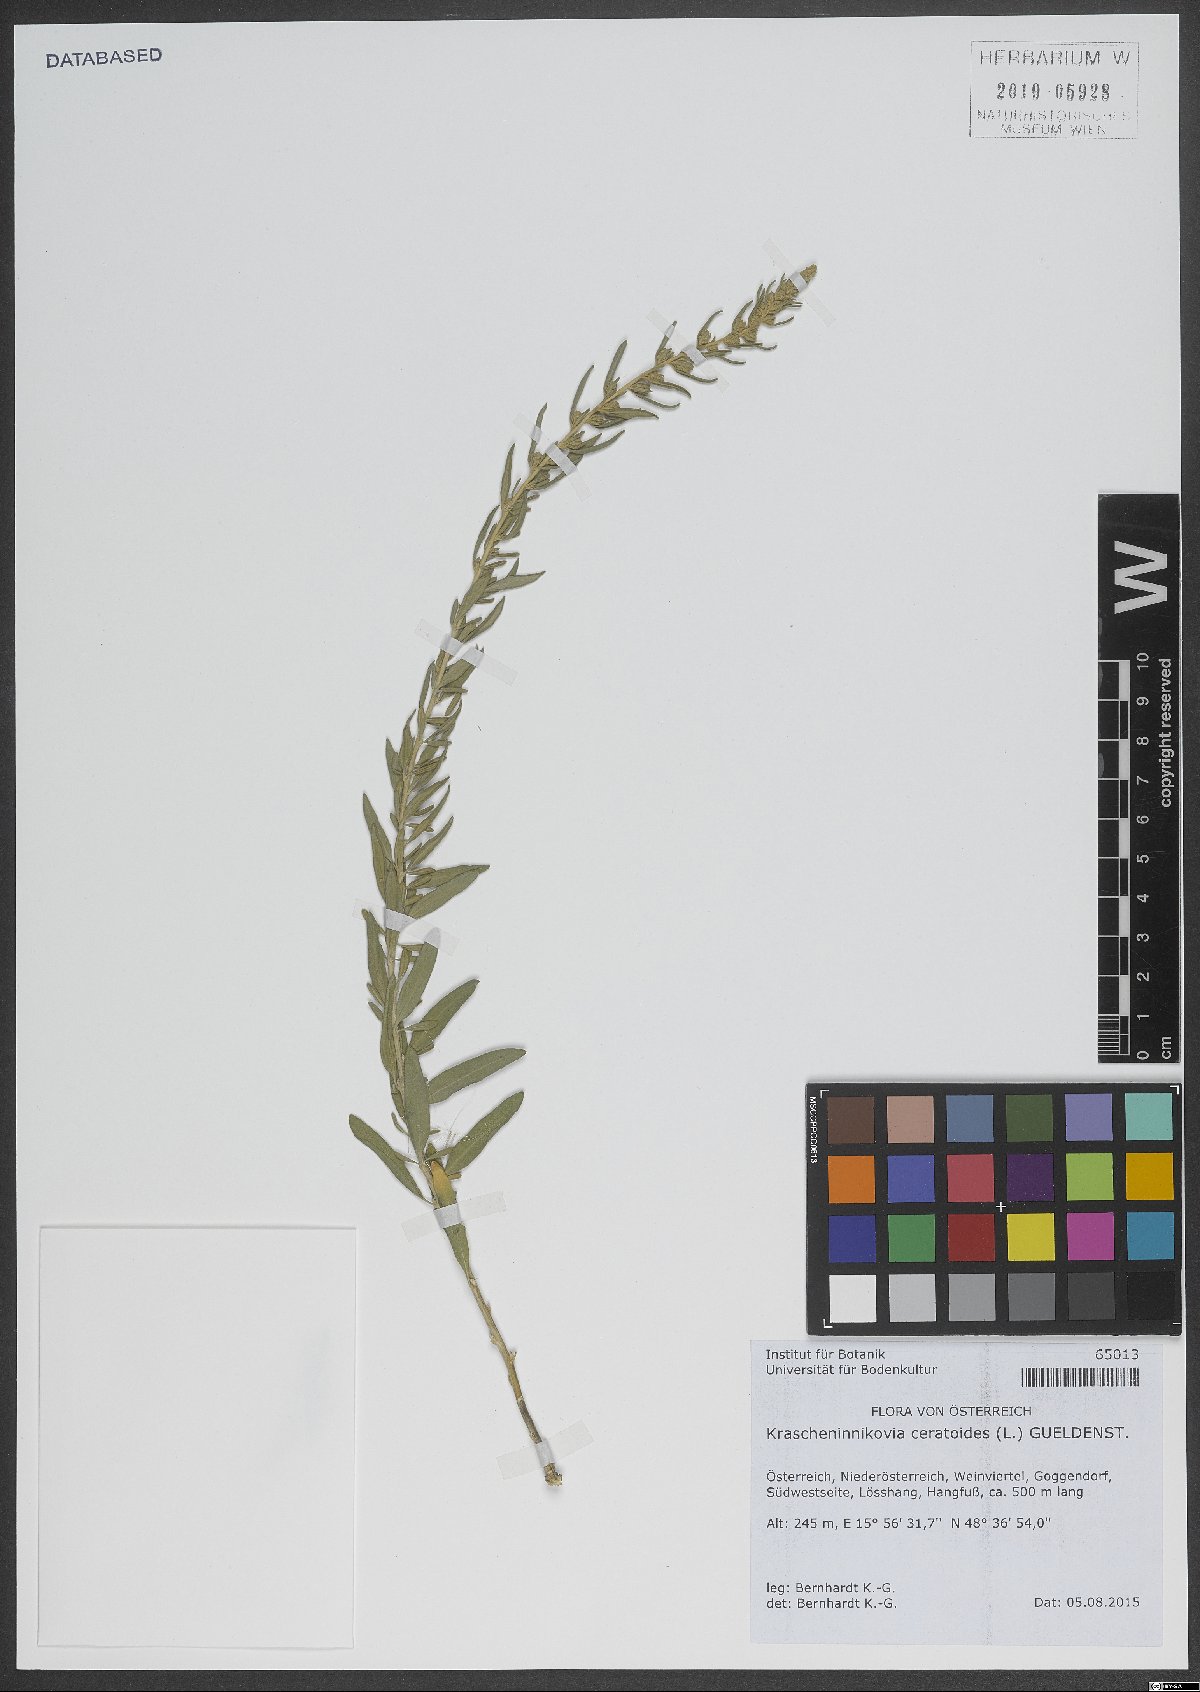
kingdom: Plantae
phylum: Tracheophyta
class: Magnoliopsida
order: Caryophyllales
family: Amaranthaceae
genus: Krascheninnikovia
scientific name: Krascheninnikovia ceratoides
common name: Pamirian winterfat
